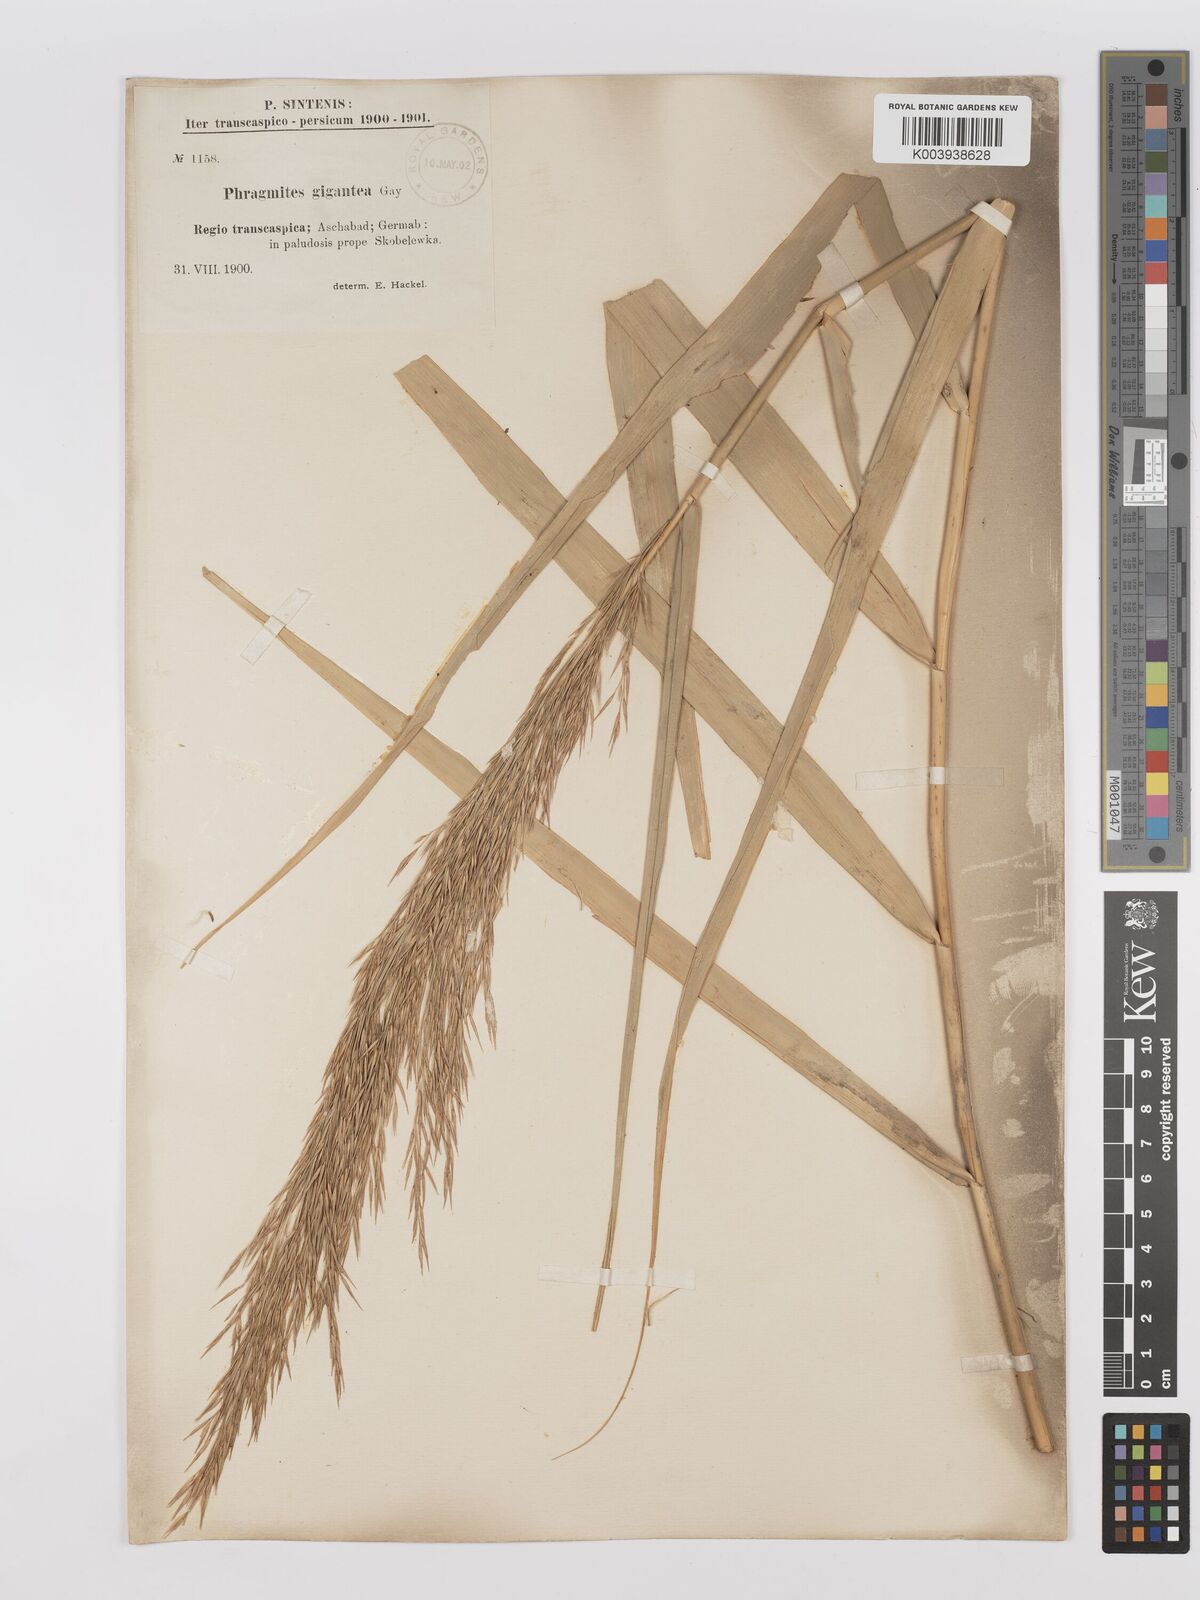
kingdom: Plantae
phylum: Tracheophyta
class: Liliopsida
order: Poales
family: Poaceae
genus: Phragmites
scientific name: Phragmites australis
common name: Common reed
